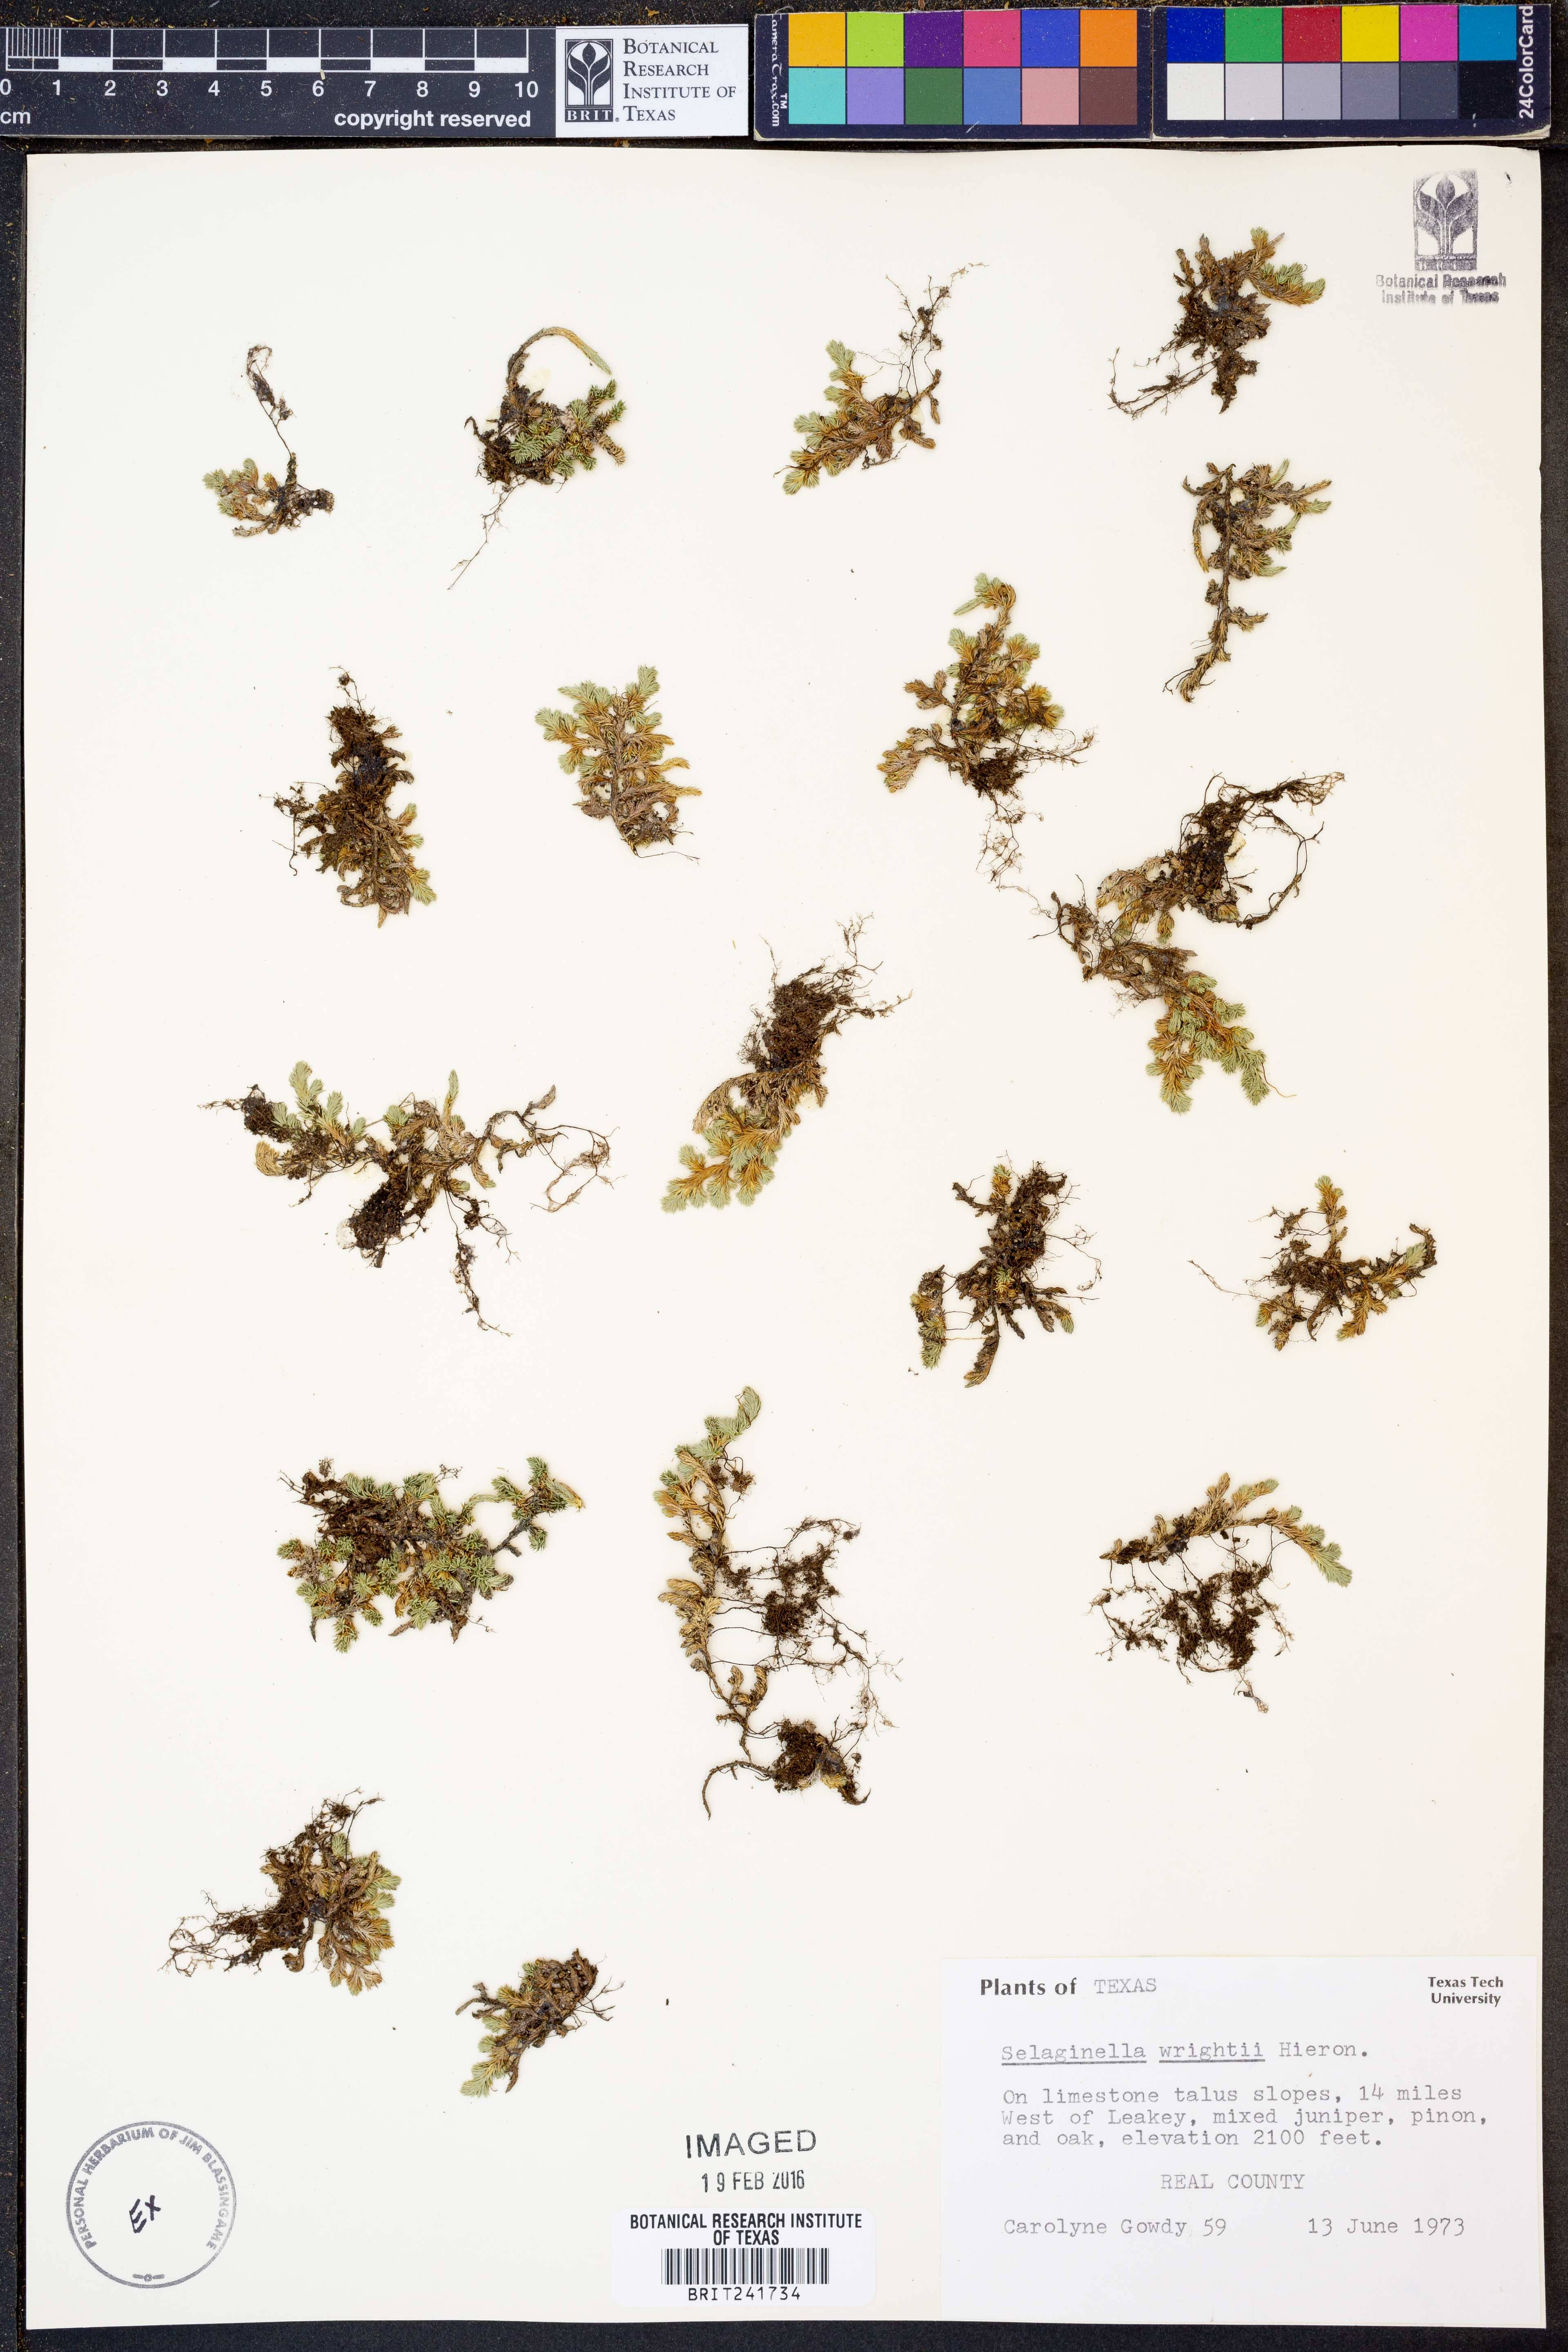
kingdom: Plantae
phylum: Tracheophyta
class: Lycopodiopsida
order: Selaginellales
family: Selaginellaceae
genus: Selaginella
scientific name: Selaginella wrightii
